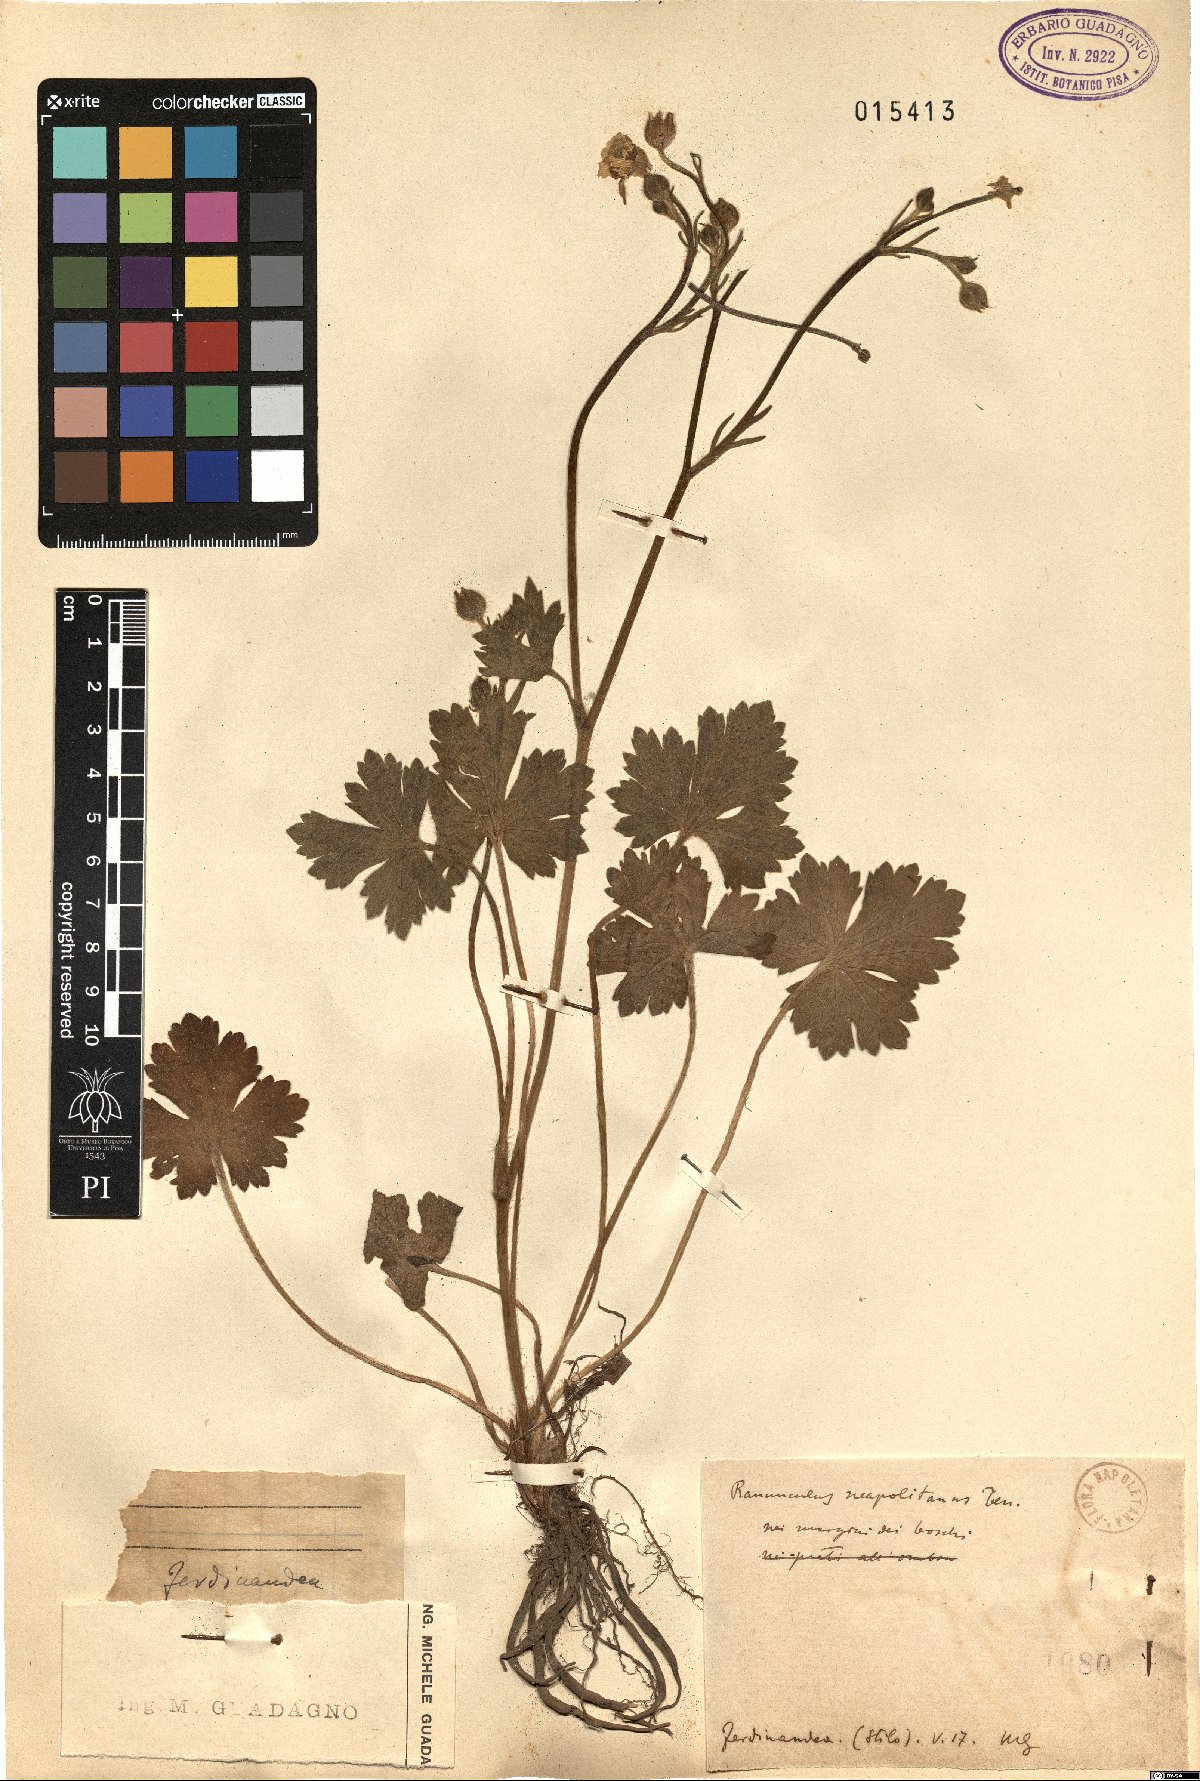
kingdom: Plantae
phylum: Tracheophyta
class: Magnoliopsida
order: Ranunculales
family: Ranunculaceae
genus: Ranunculus
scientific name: Ranunculus neapolitanus
